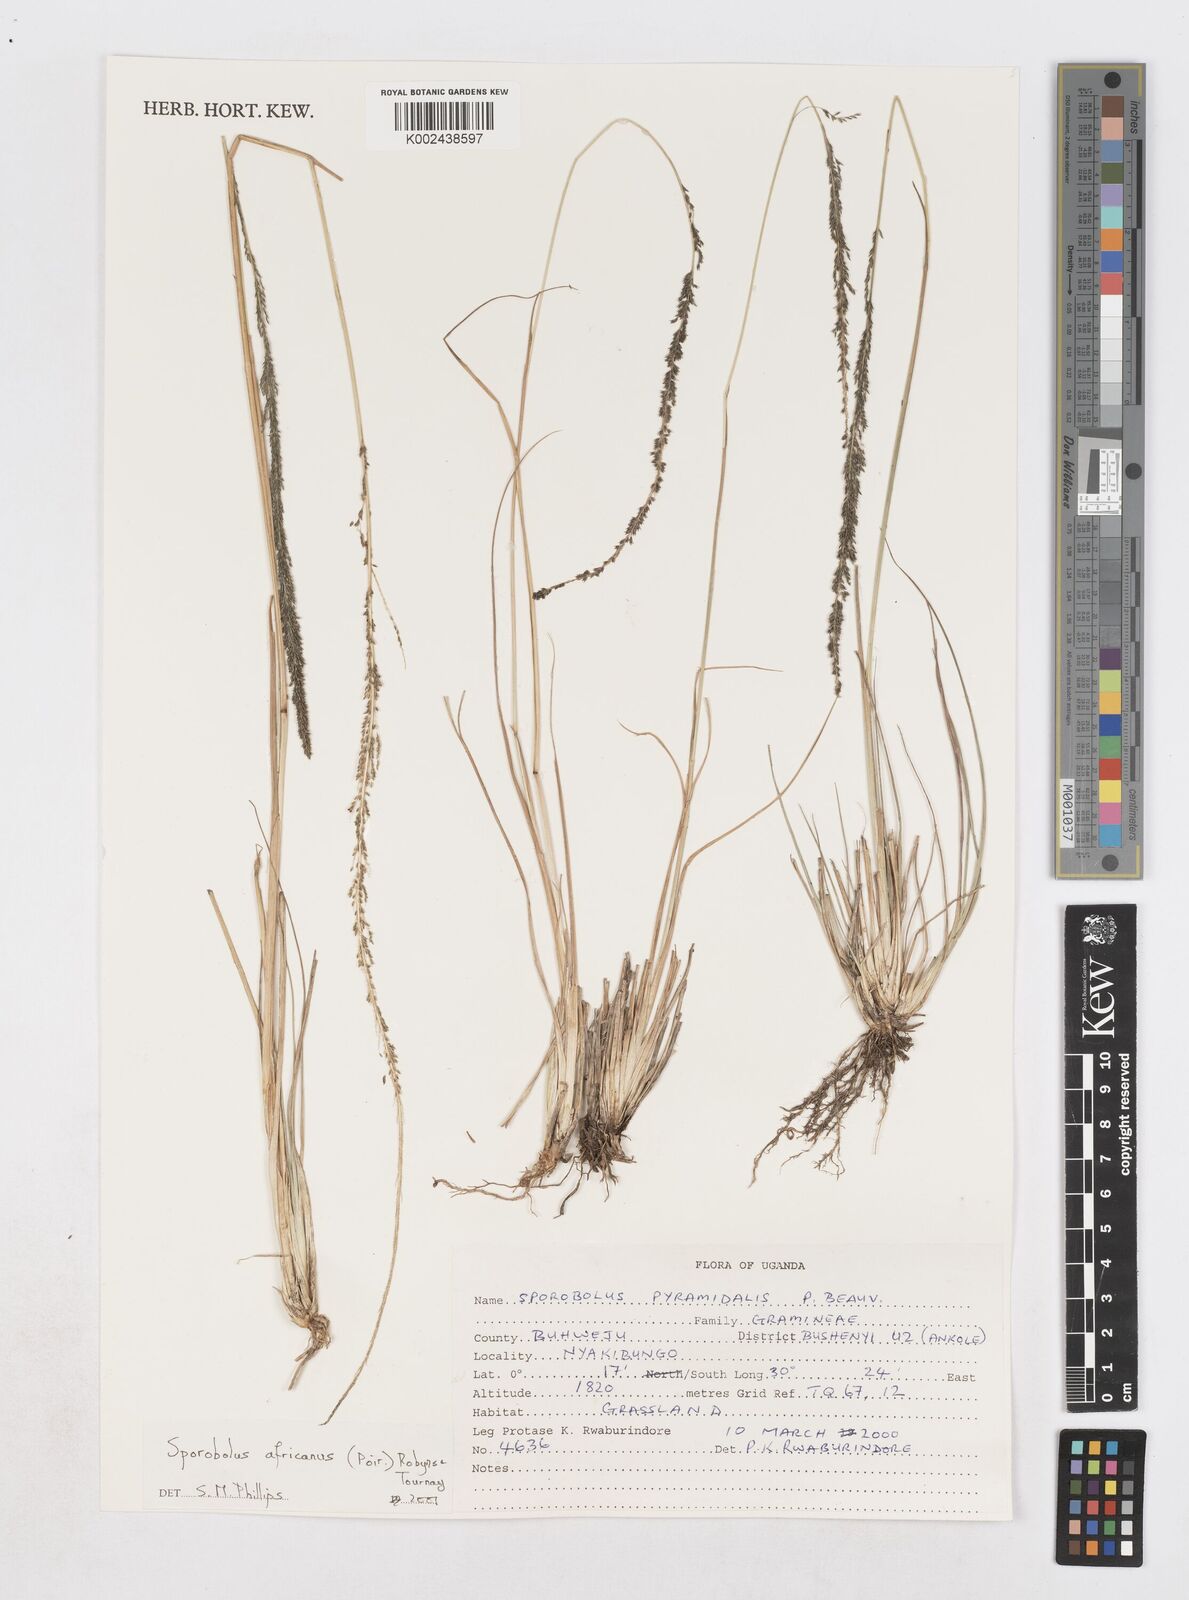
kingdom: Plantae
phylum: Tracheophyta
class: Liliopsida
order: Poales
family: Poaceae
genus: Sporobolus
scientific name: Sporobolus africanus
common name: African dropseed
